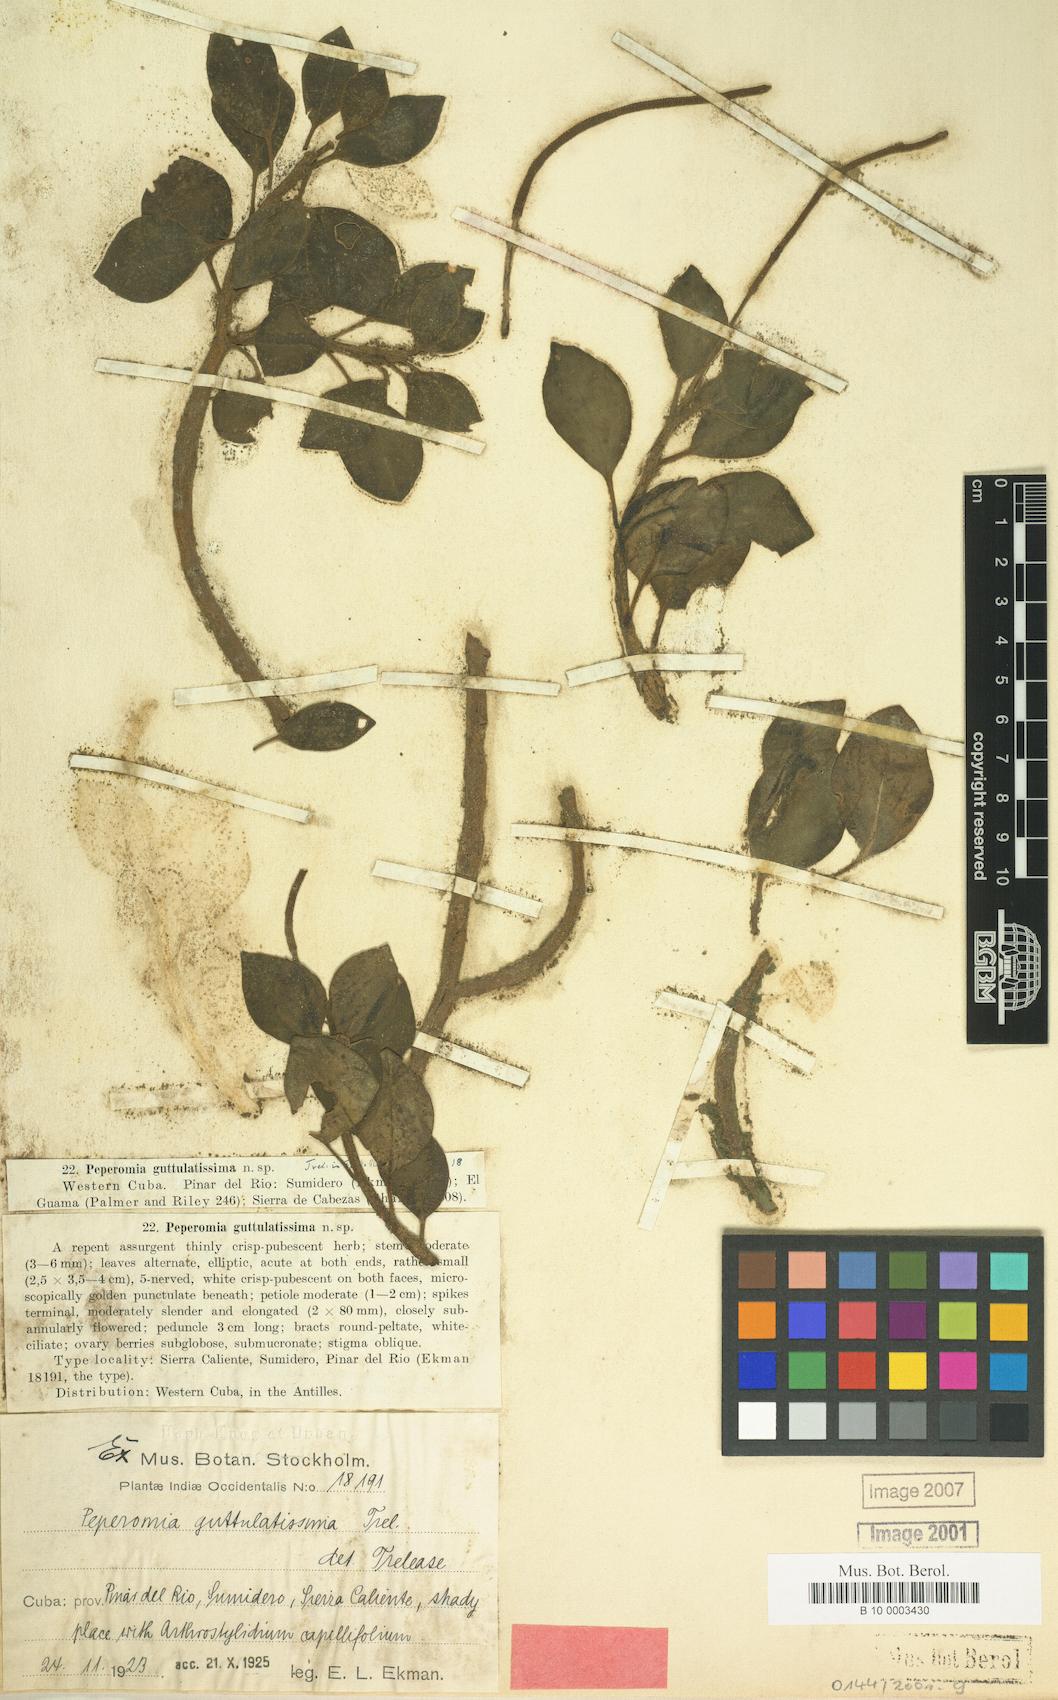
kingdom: Plantae
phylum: Tracheophyta
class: Magnoliopsida
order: Piperales
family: Piperaceae
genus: Peperomia
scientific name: Peperomia hirta
